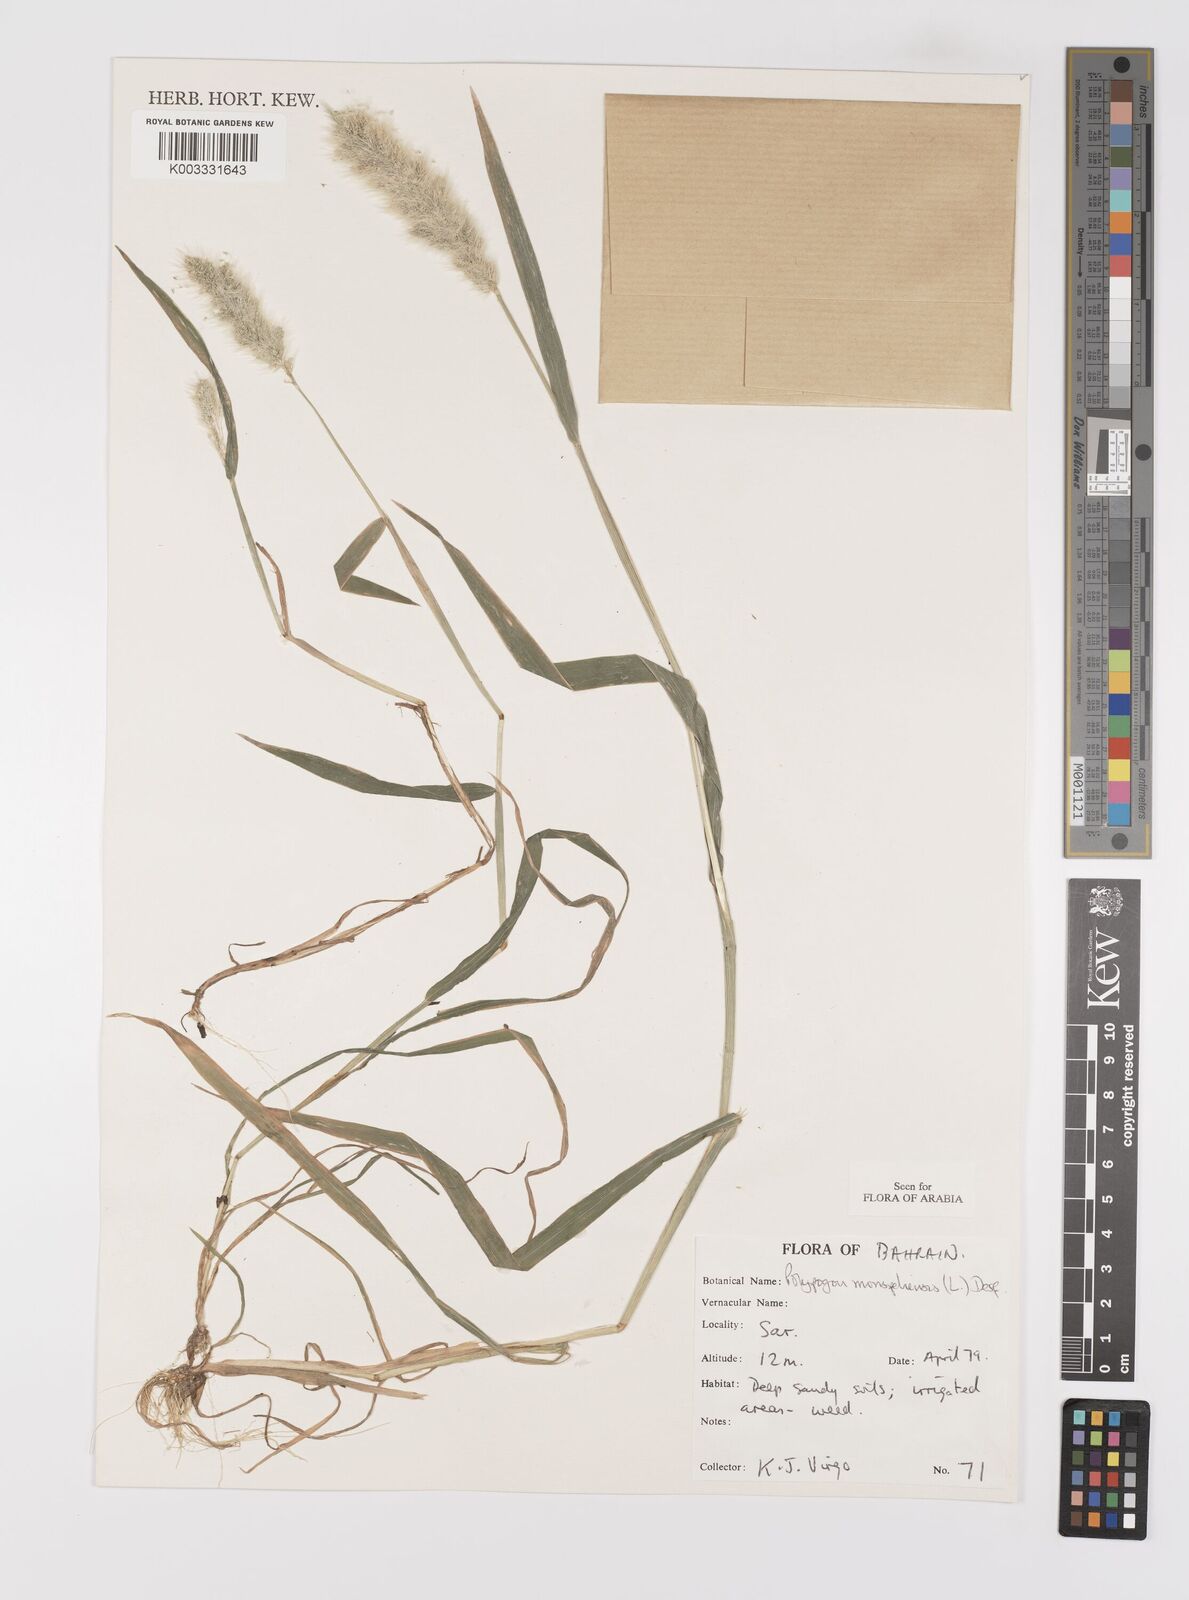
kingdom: Plantae
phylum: Tracheophyta
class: Liliopsida
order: Poales
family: Poaceae
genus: Polypogon
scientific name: Polypogon monspeliensis
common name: Annual rabbitsfoot grass
